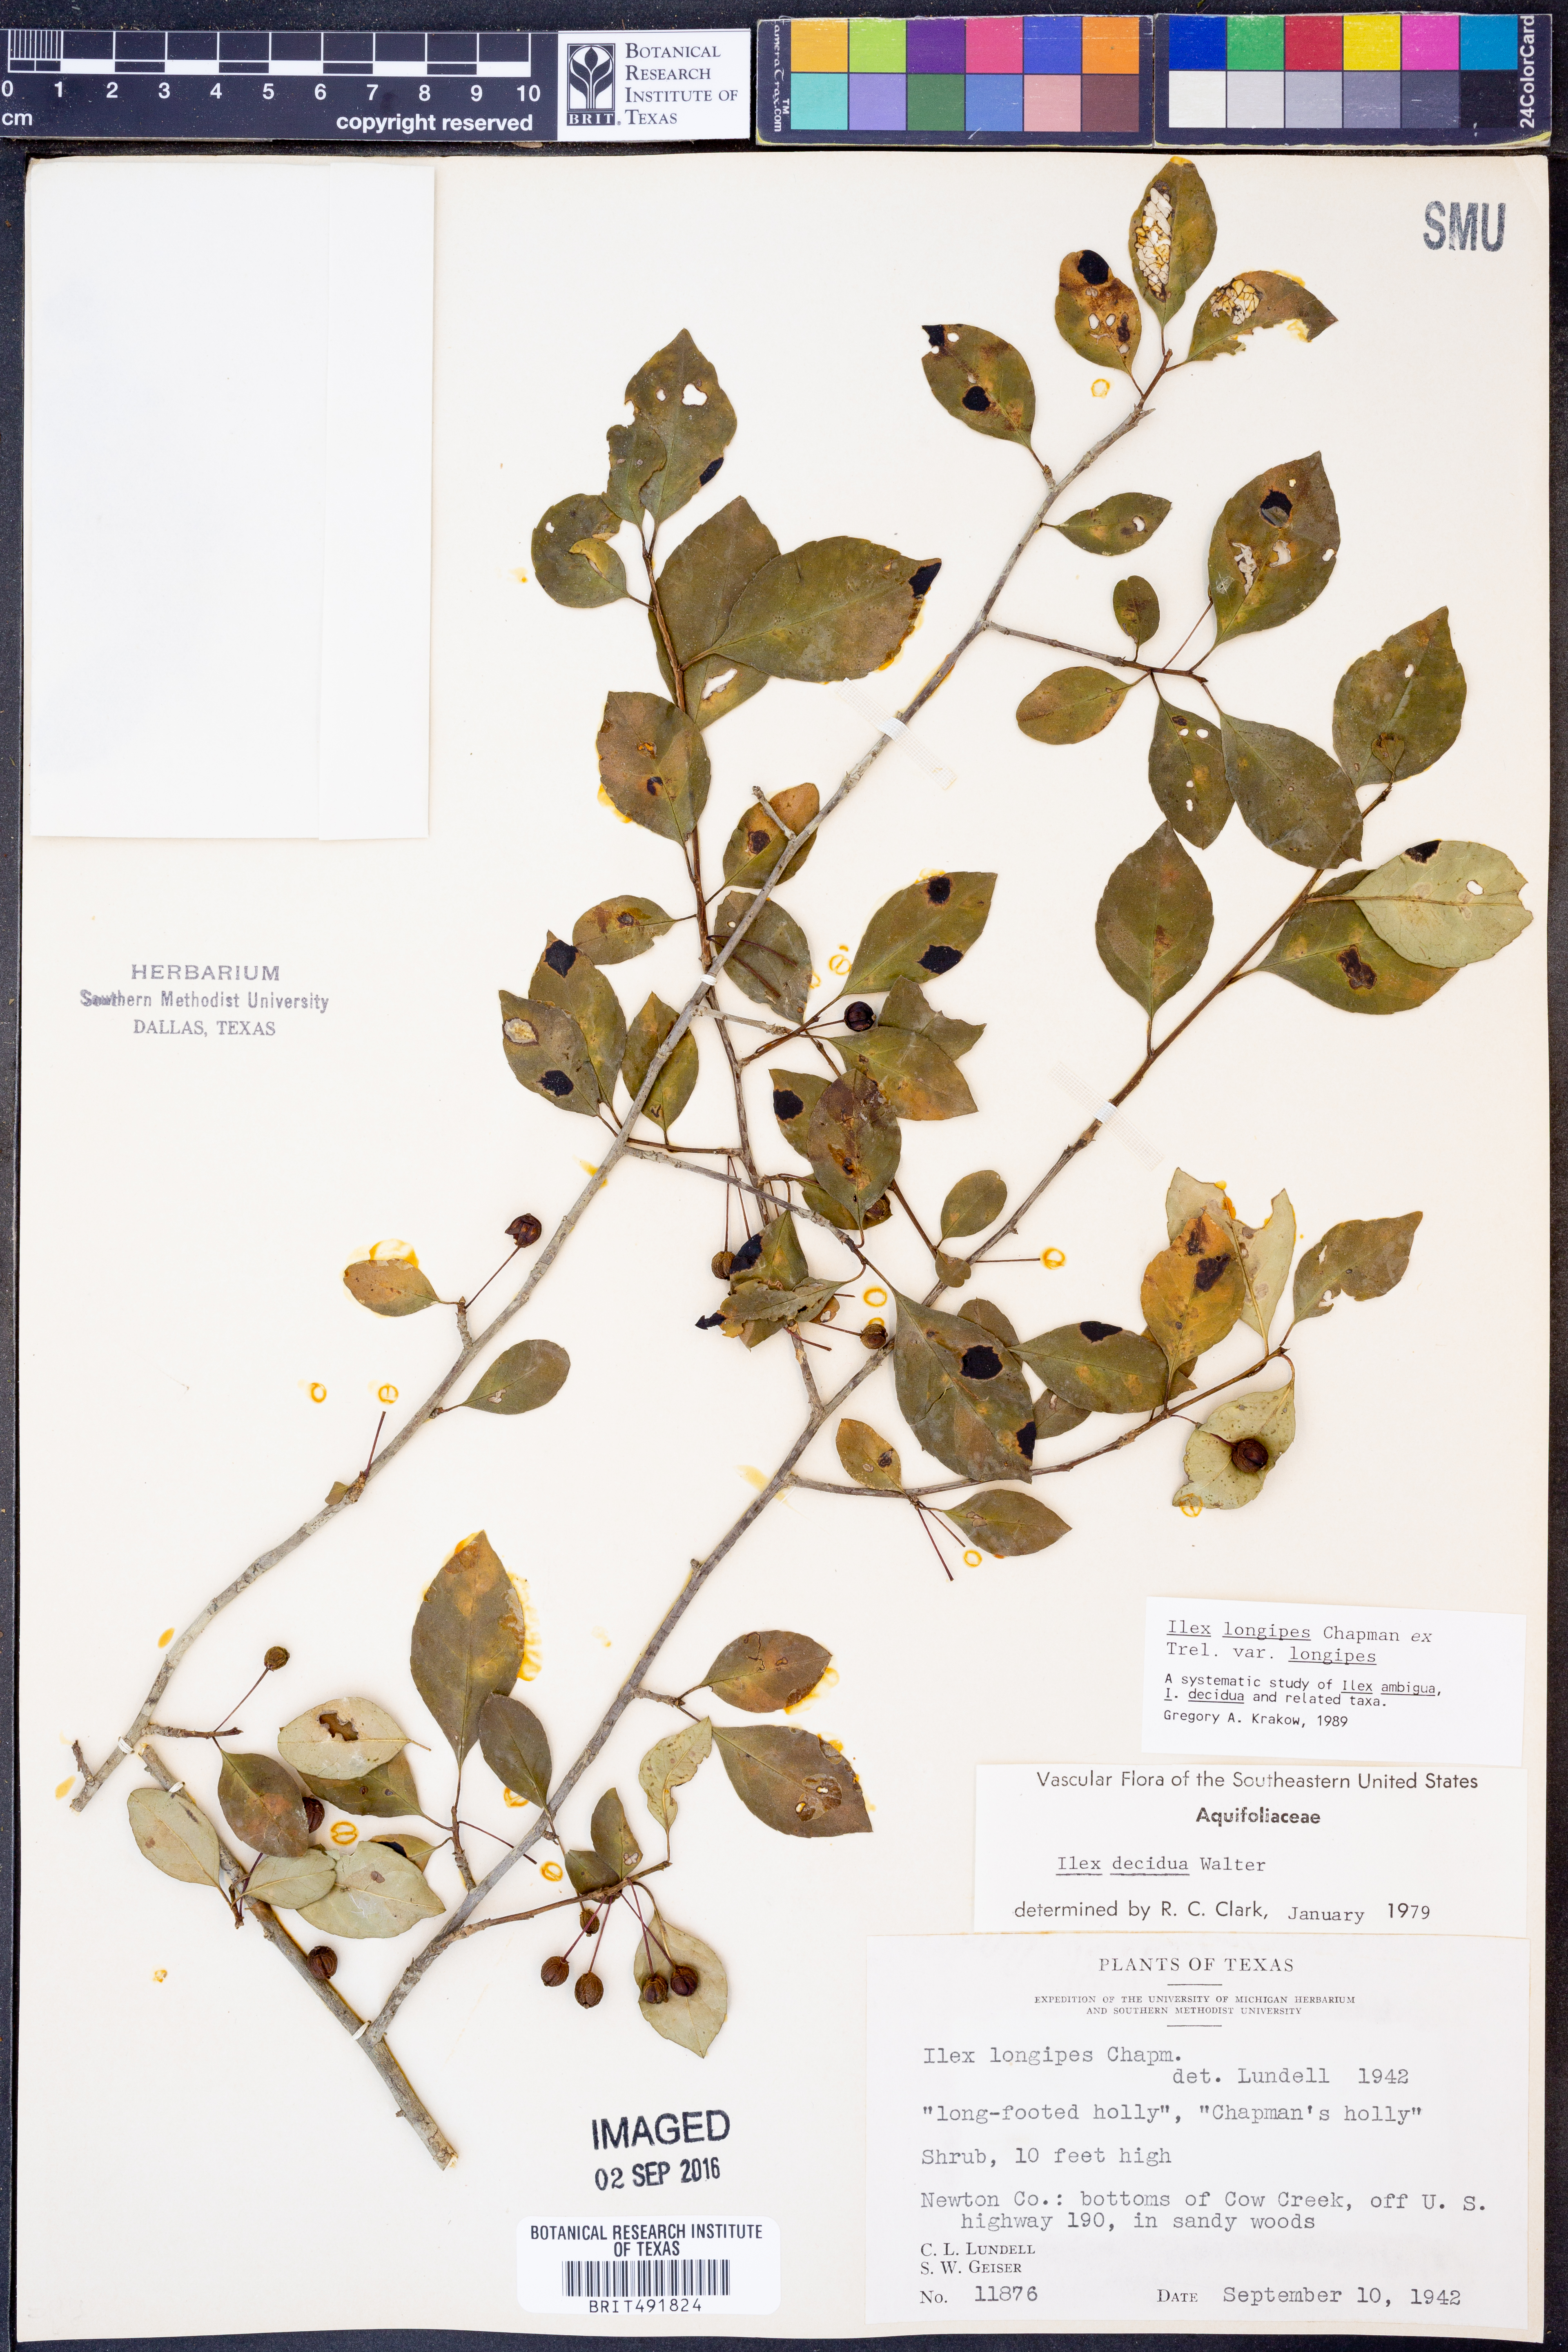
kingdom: Plantae
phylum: Tracheophyta
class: Magnoliopsida
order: Aquifoliales
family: Aquifoliaceae
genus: Ilex
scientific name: Ilex longipes
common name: Georgia holly
